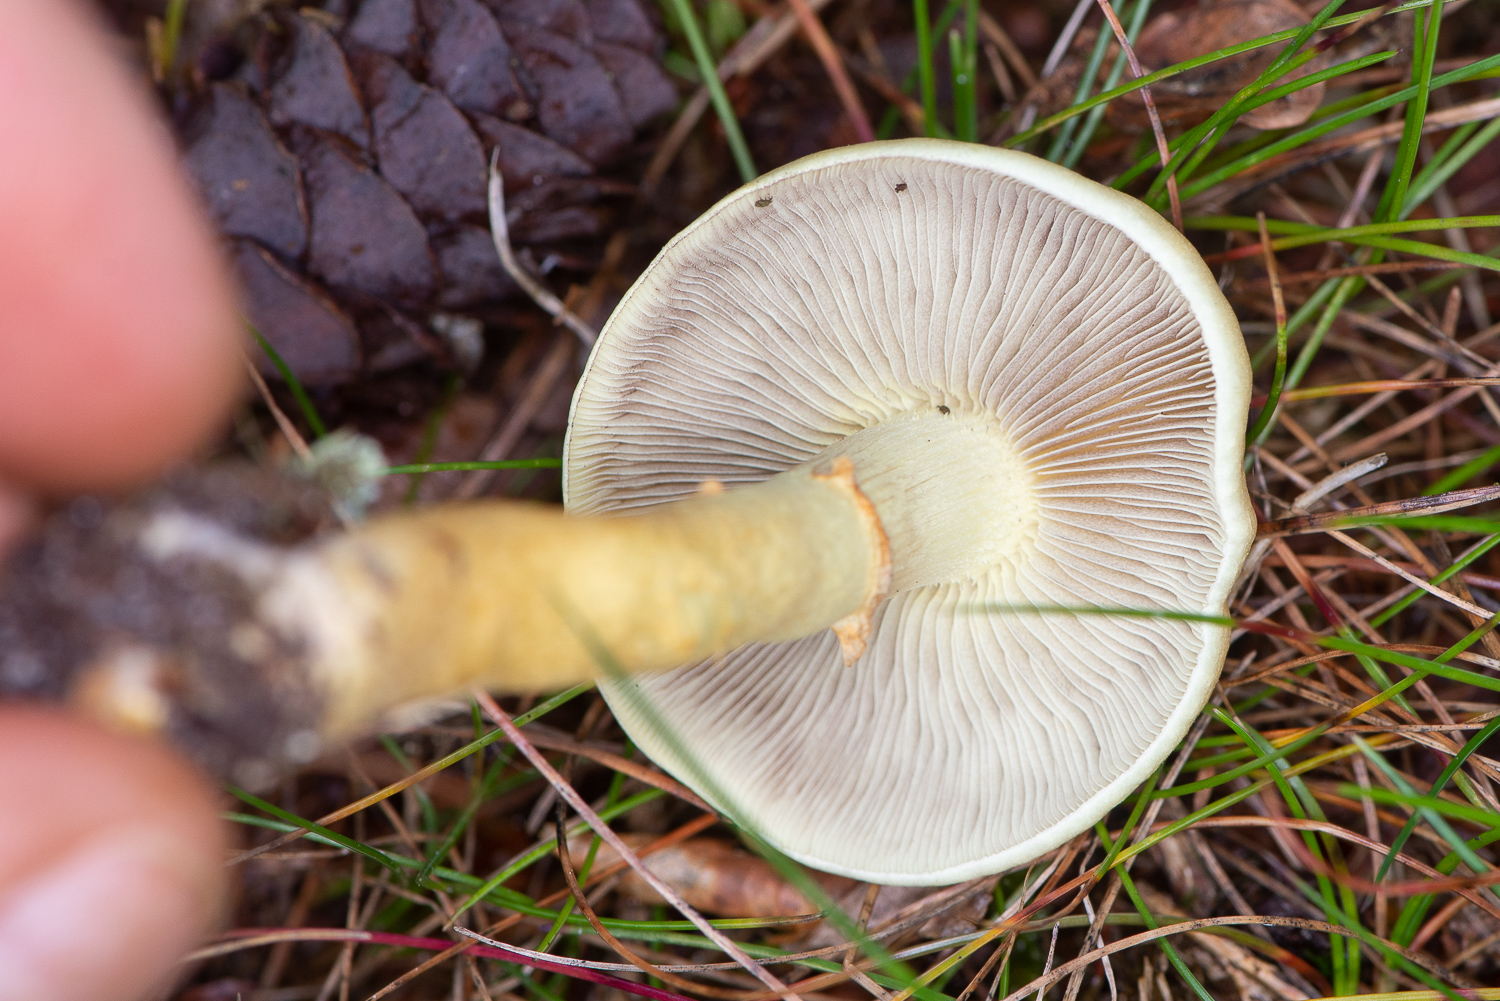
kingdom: Fungi
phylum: Basidiomycota
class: Agaricomycetes
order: Agaricales
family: Strophariaceae
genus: Hypholoma
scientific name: Hypholoma fasciculare
